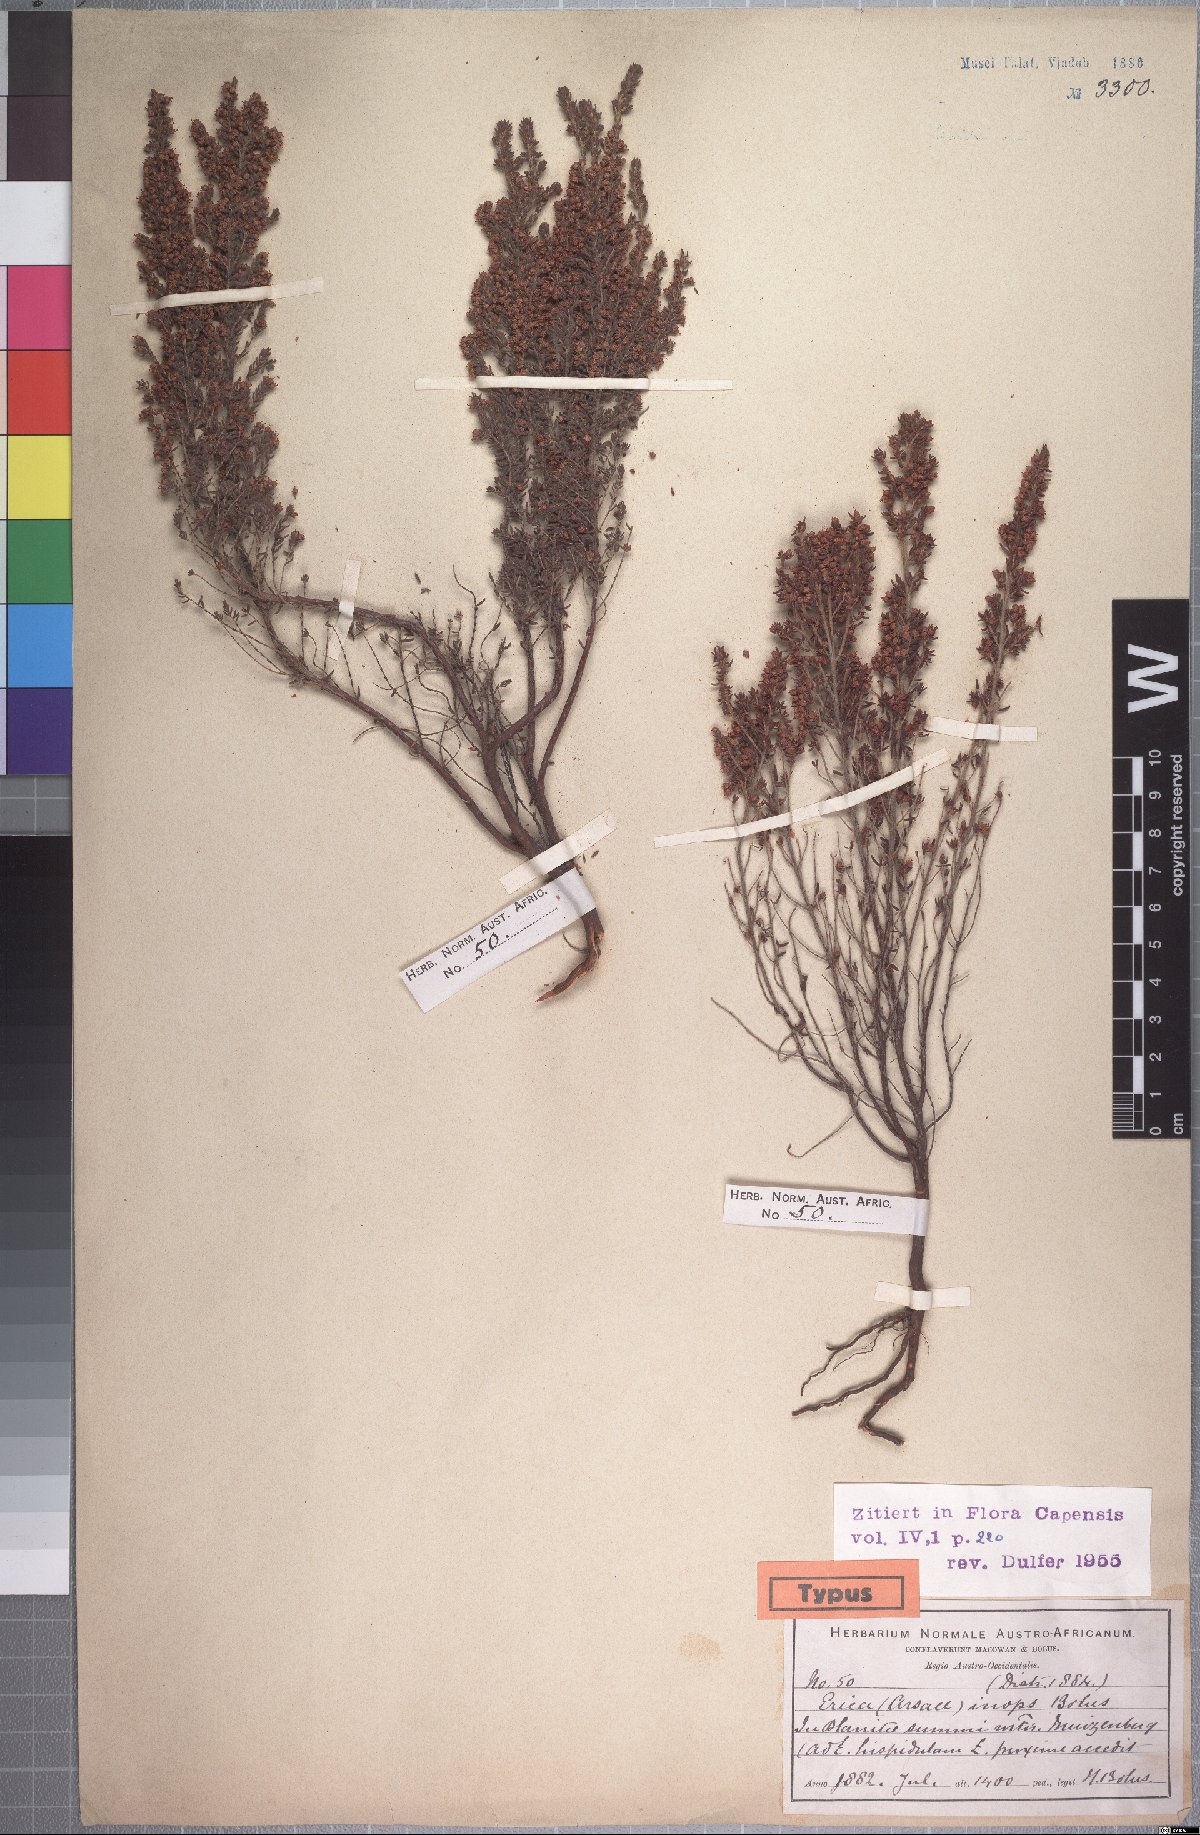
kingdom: Plantae
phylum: Tracheophyta
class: Magnoliopsida
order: Ericales
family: Ericaceae
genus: Erica
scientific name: Erica hispidula
